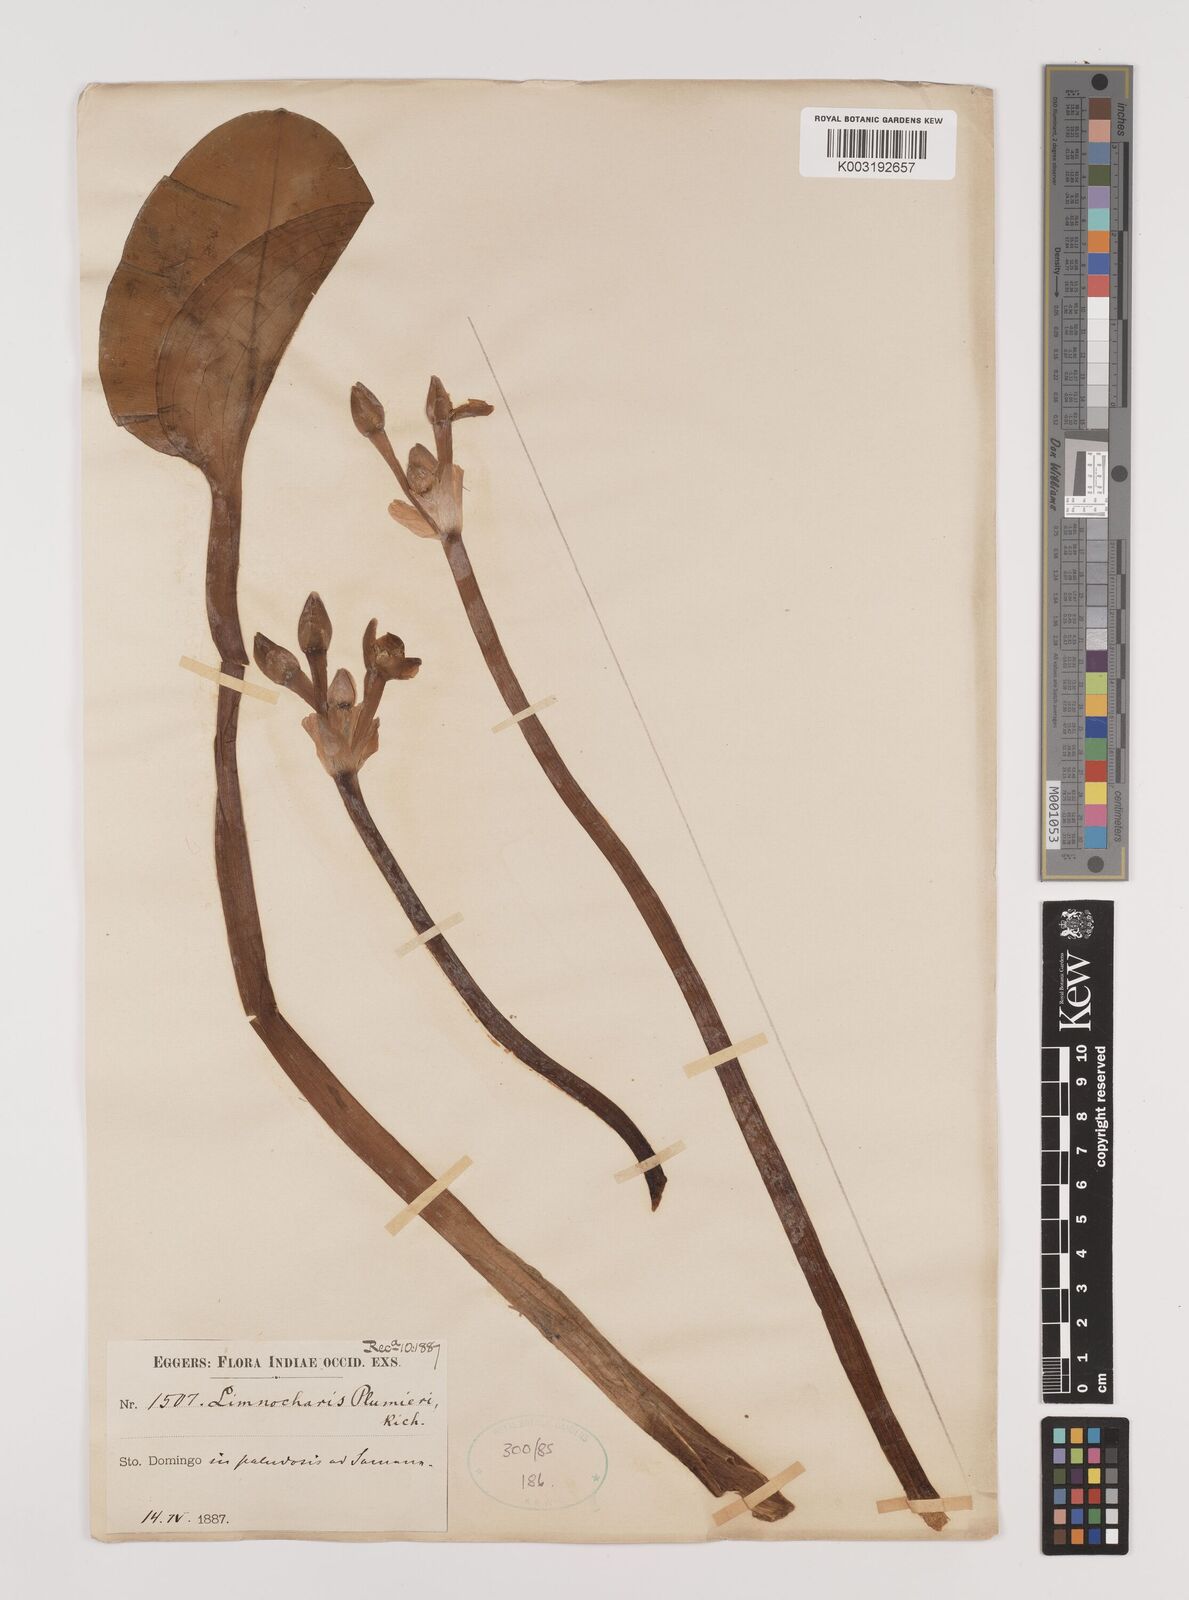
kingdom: Plantae
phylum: Tracheophyta
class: Liliopsida
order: Alismatales
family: Alismataceae
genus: Limnocharis
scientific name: Limnocharis flava
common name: Sawah-flower-rush
